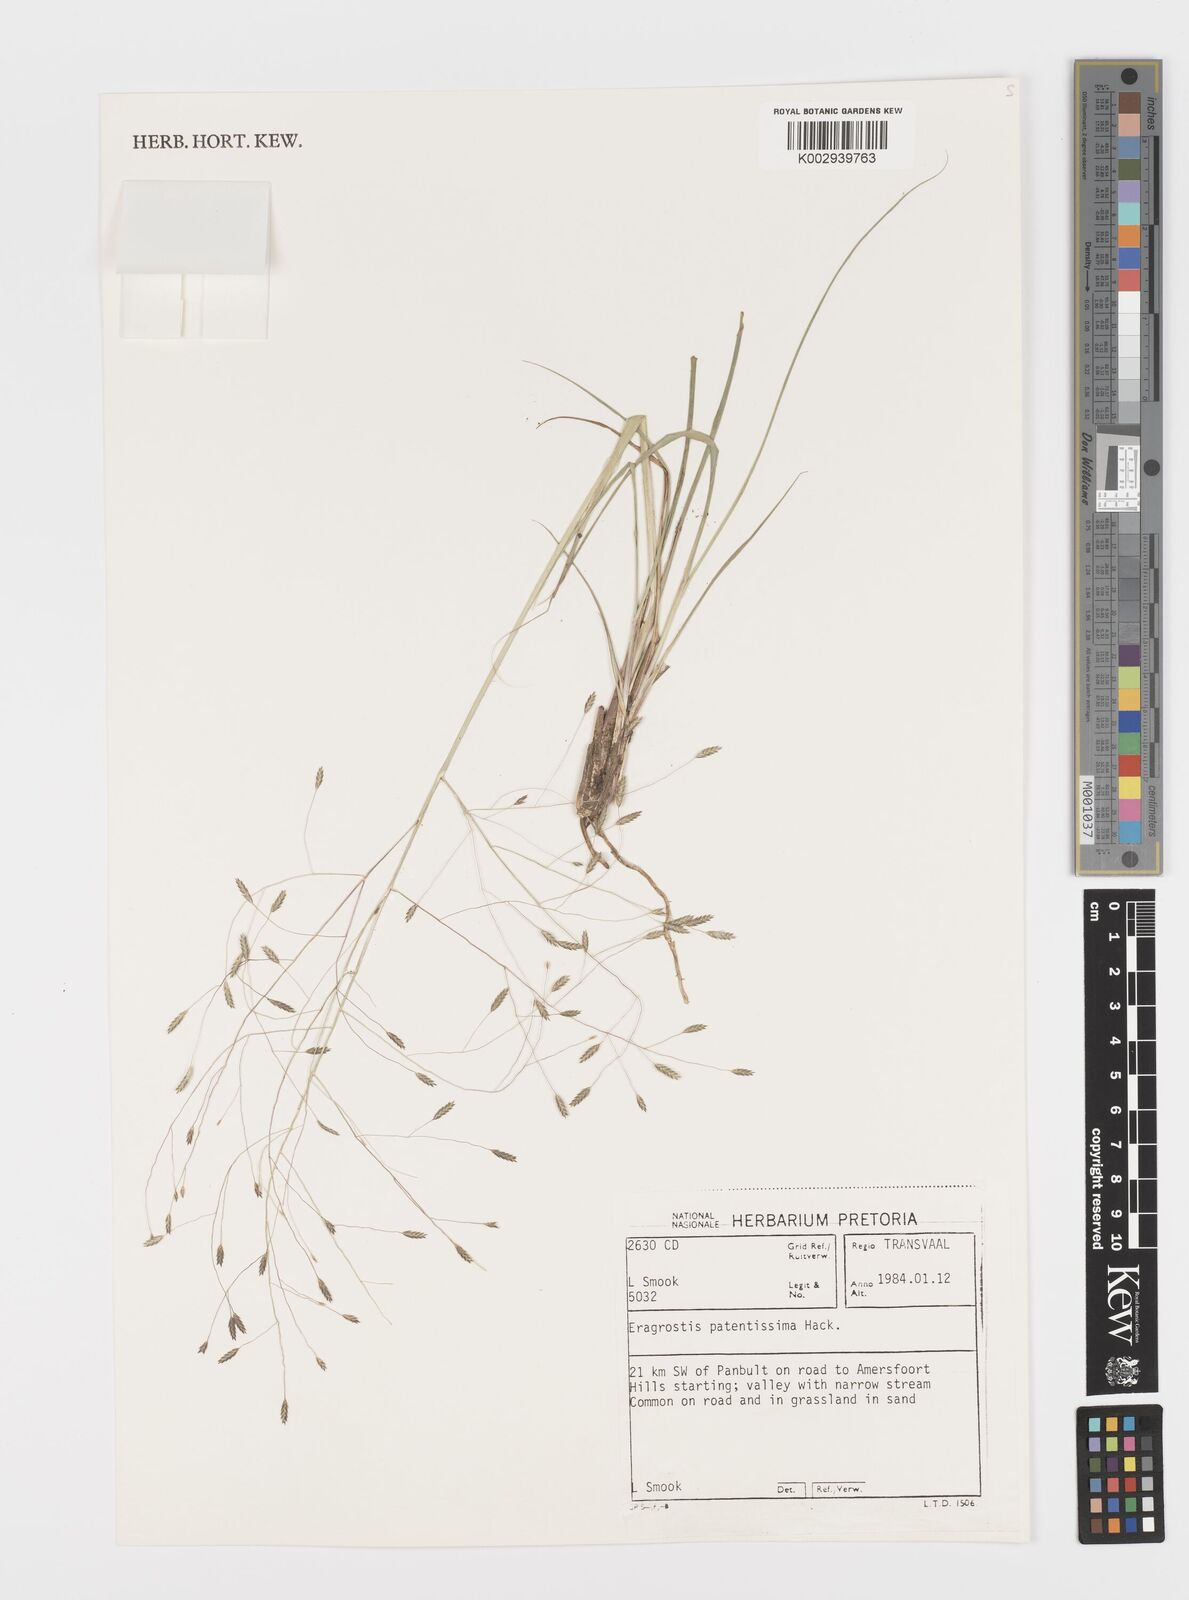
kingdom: Plantae
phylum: Tracheophyta
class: Liliopsida
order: Poales
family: Poaceae
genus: Eragrostis
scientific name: Eragrostis patentissima
